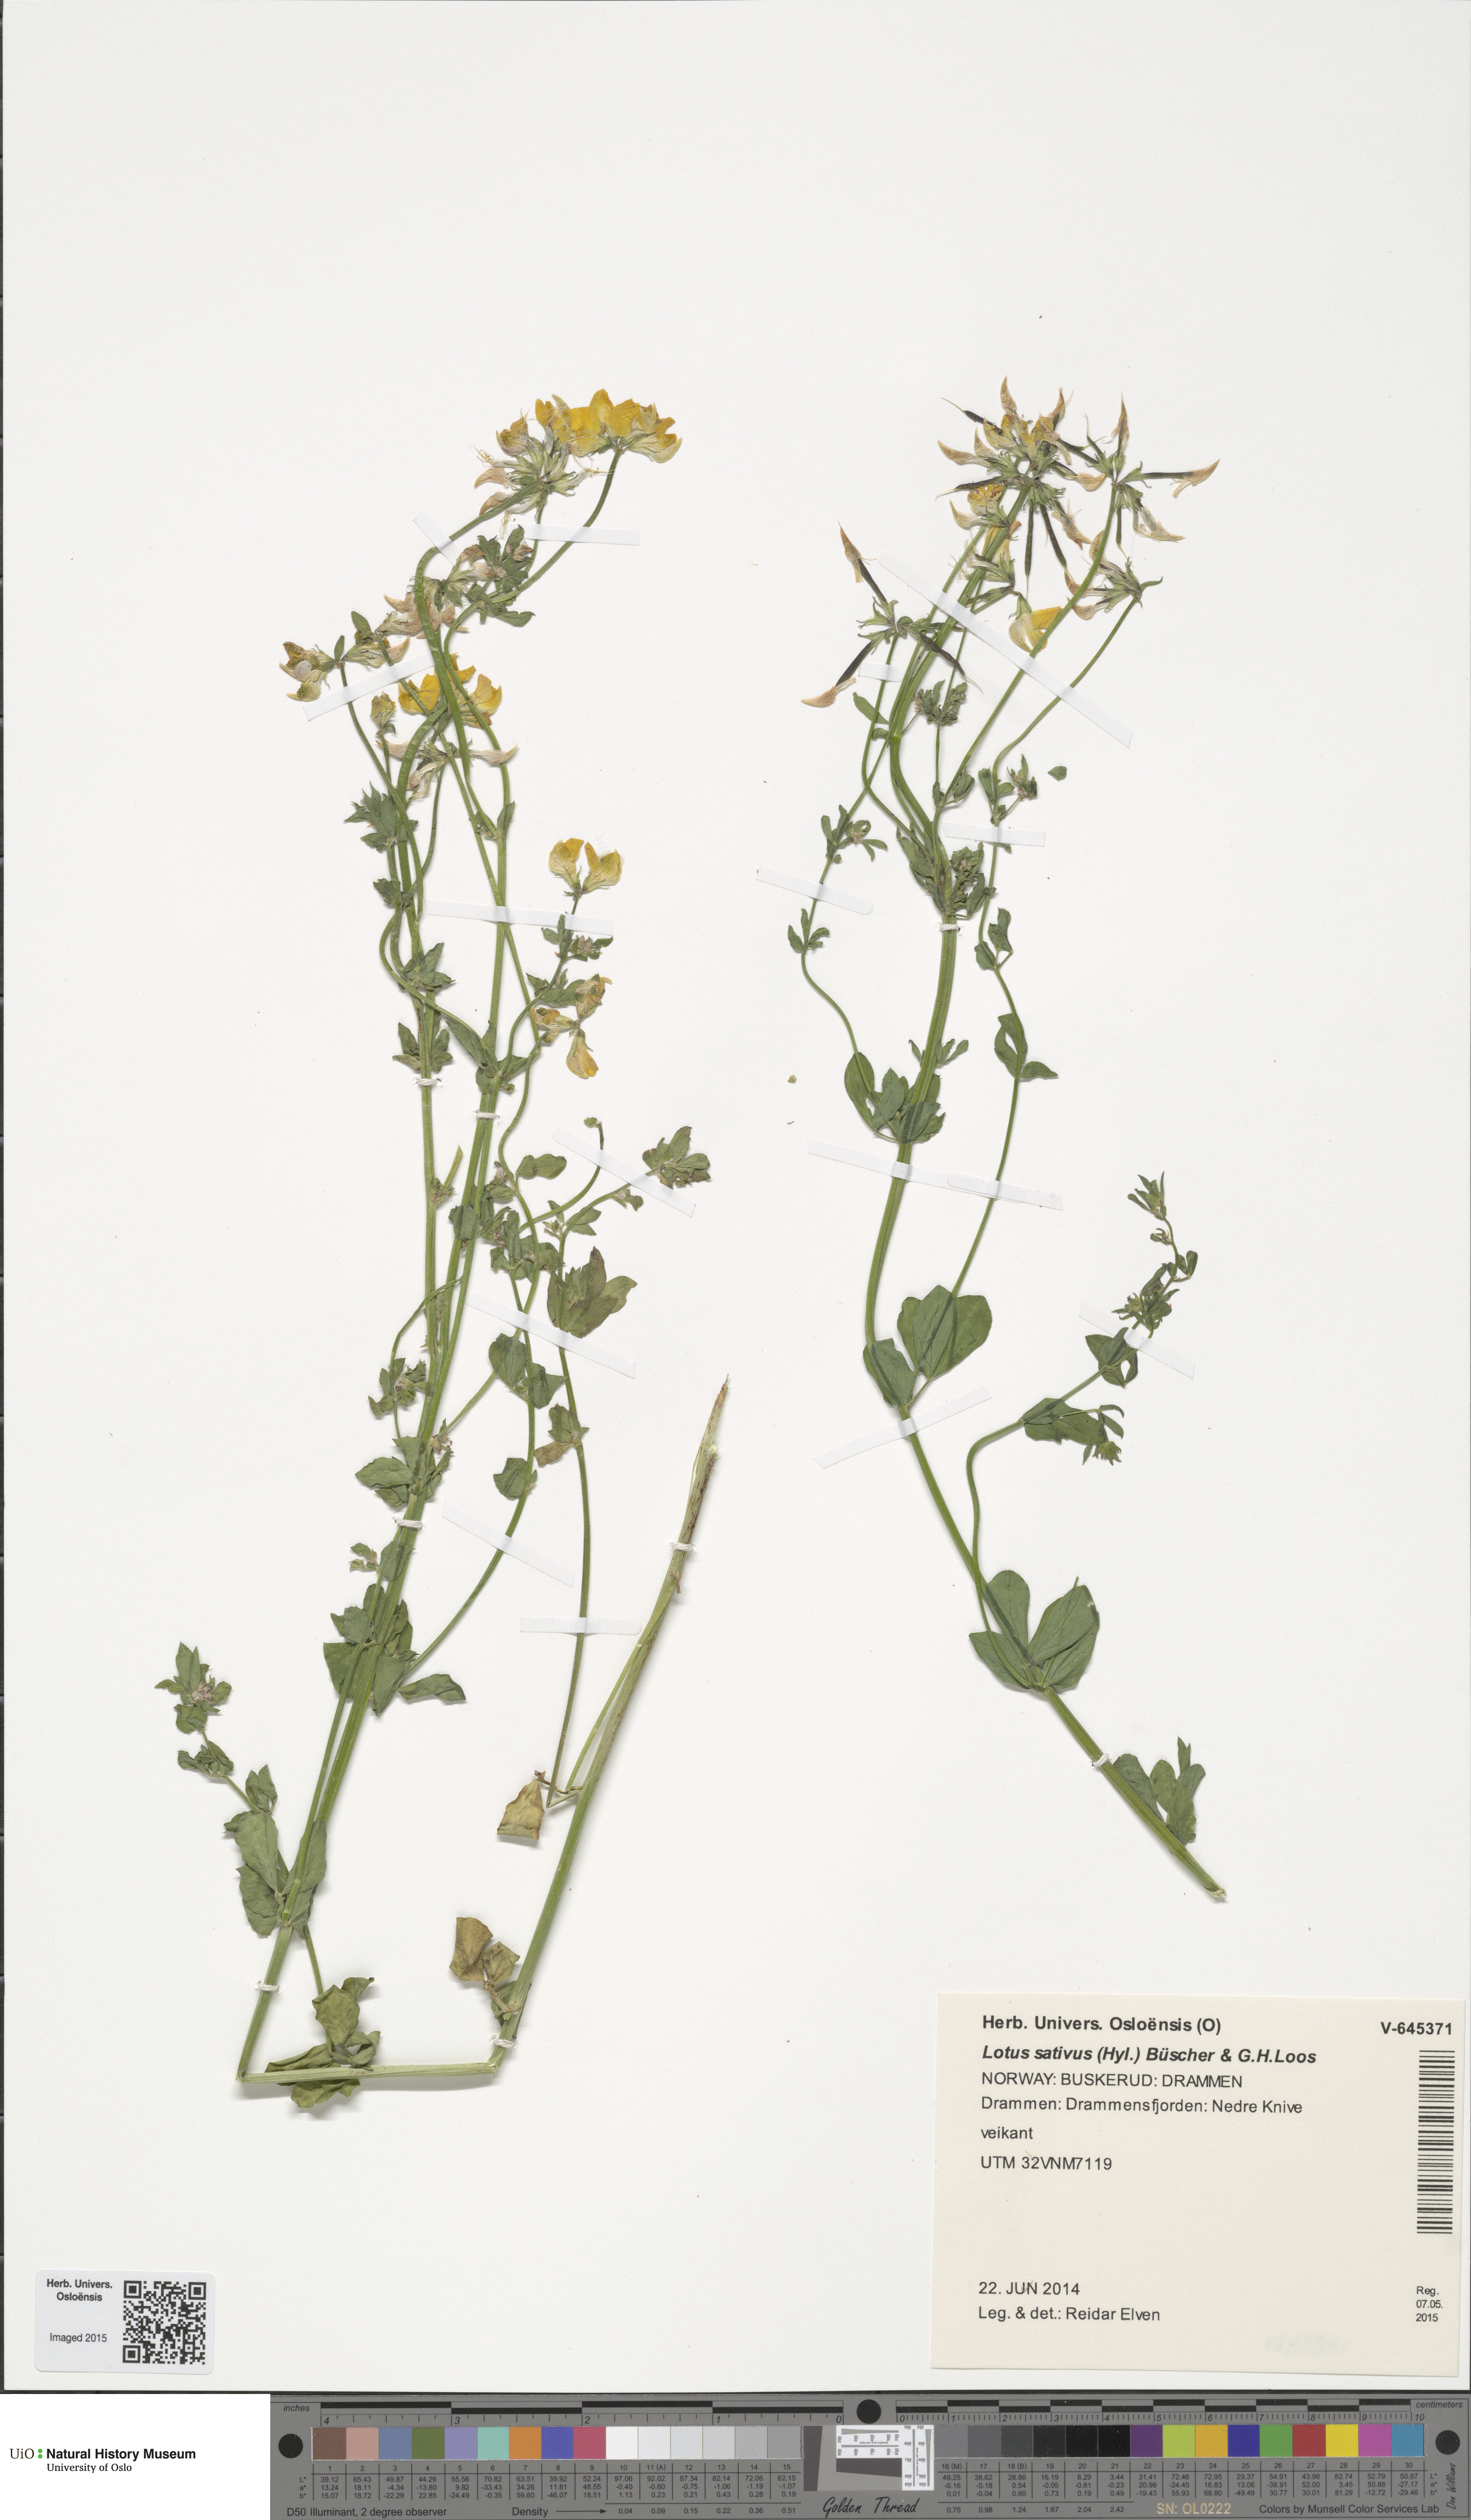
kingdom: Plantae
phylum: Tracheophyta
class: Magnoliopsida
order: Fabales
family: Fabaceae
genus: Lotus
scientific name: Lotus corniculatus
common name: Common bird's-foot-trefoil
